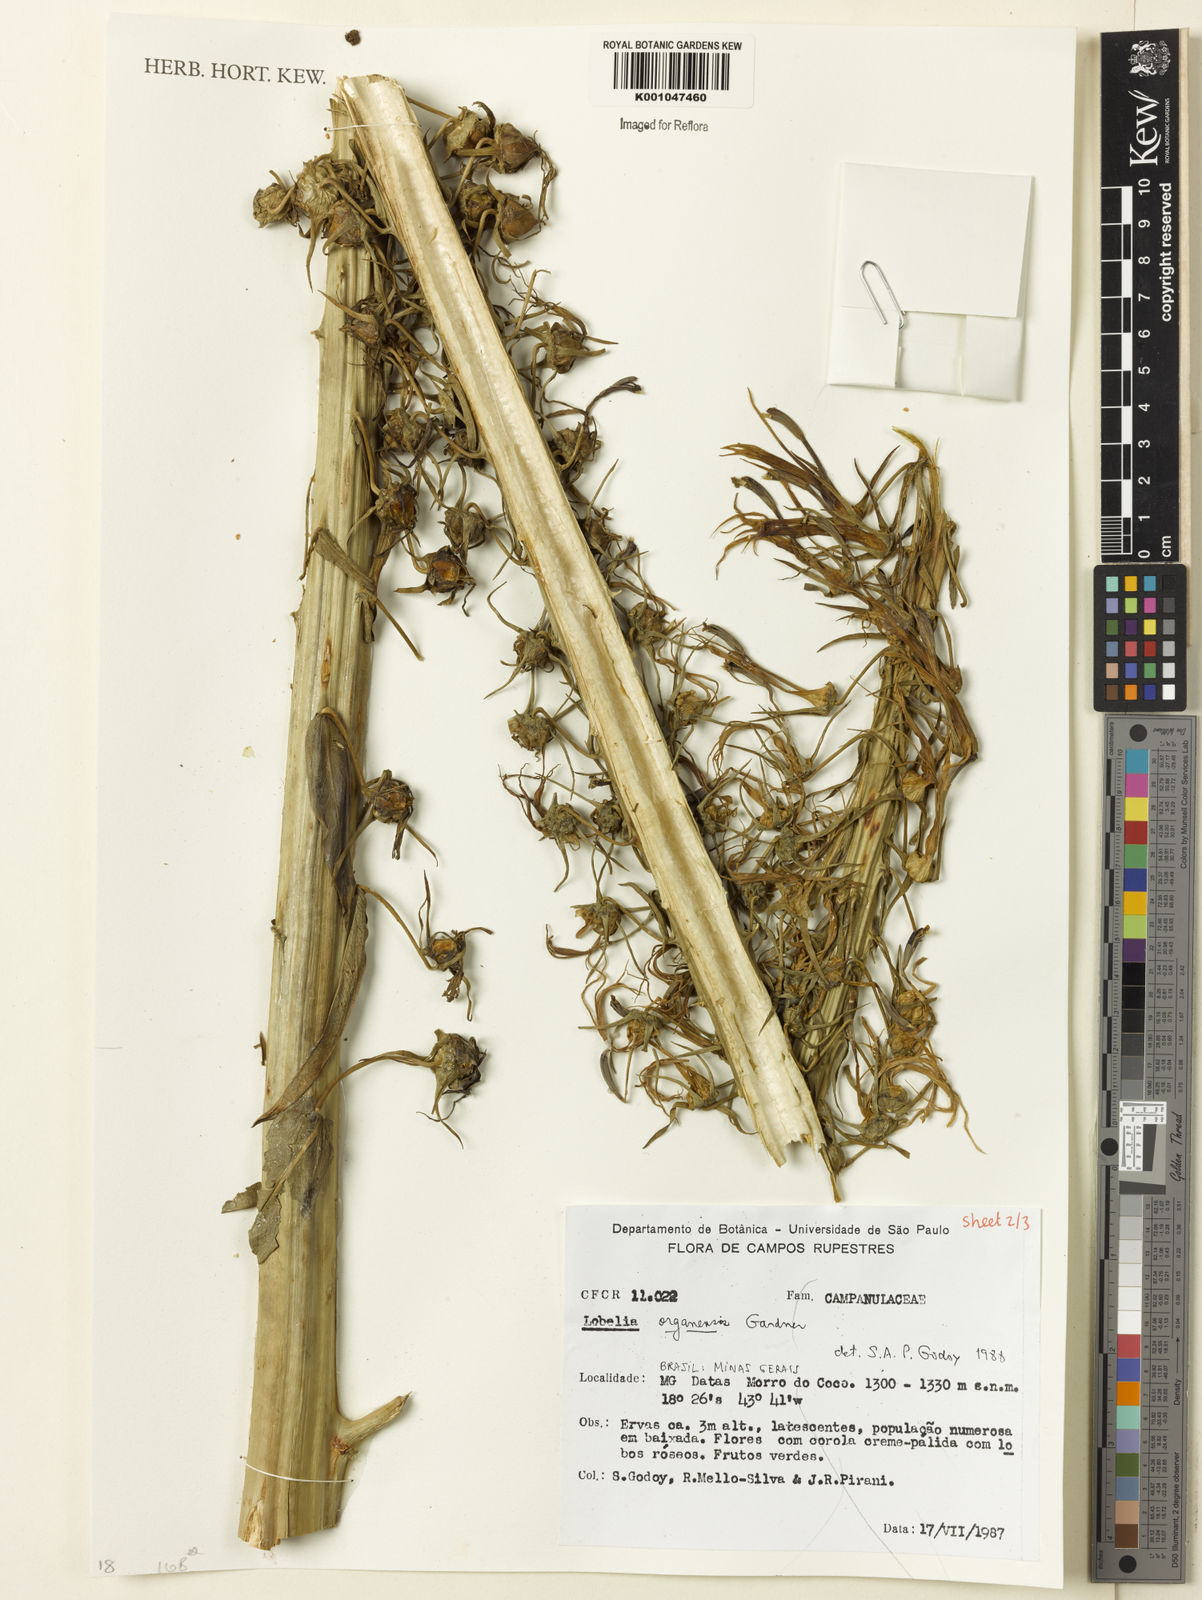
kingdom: Plantae
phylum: Tracheophyta
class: Magnoliopsida
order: Asterales
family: Campanulaceae
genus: Lobelia
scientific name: Lobelia organensis
